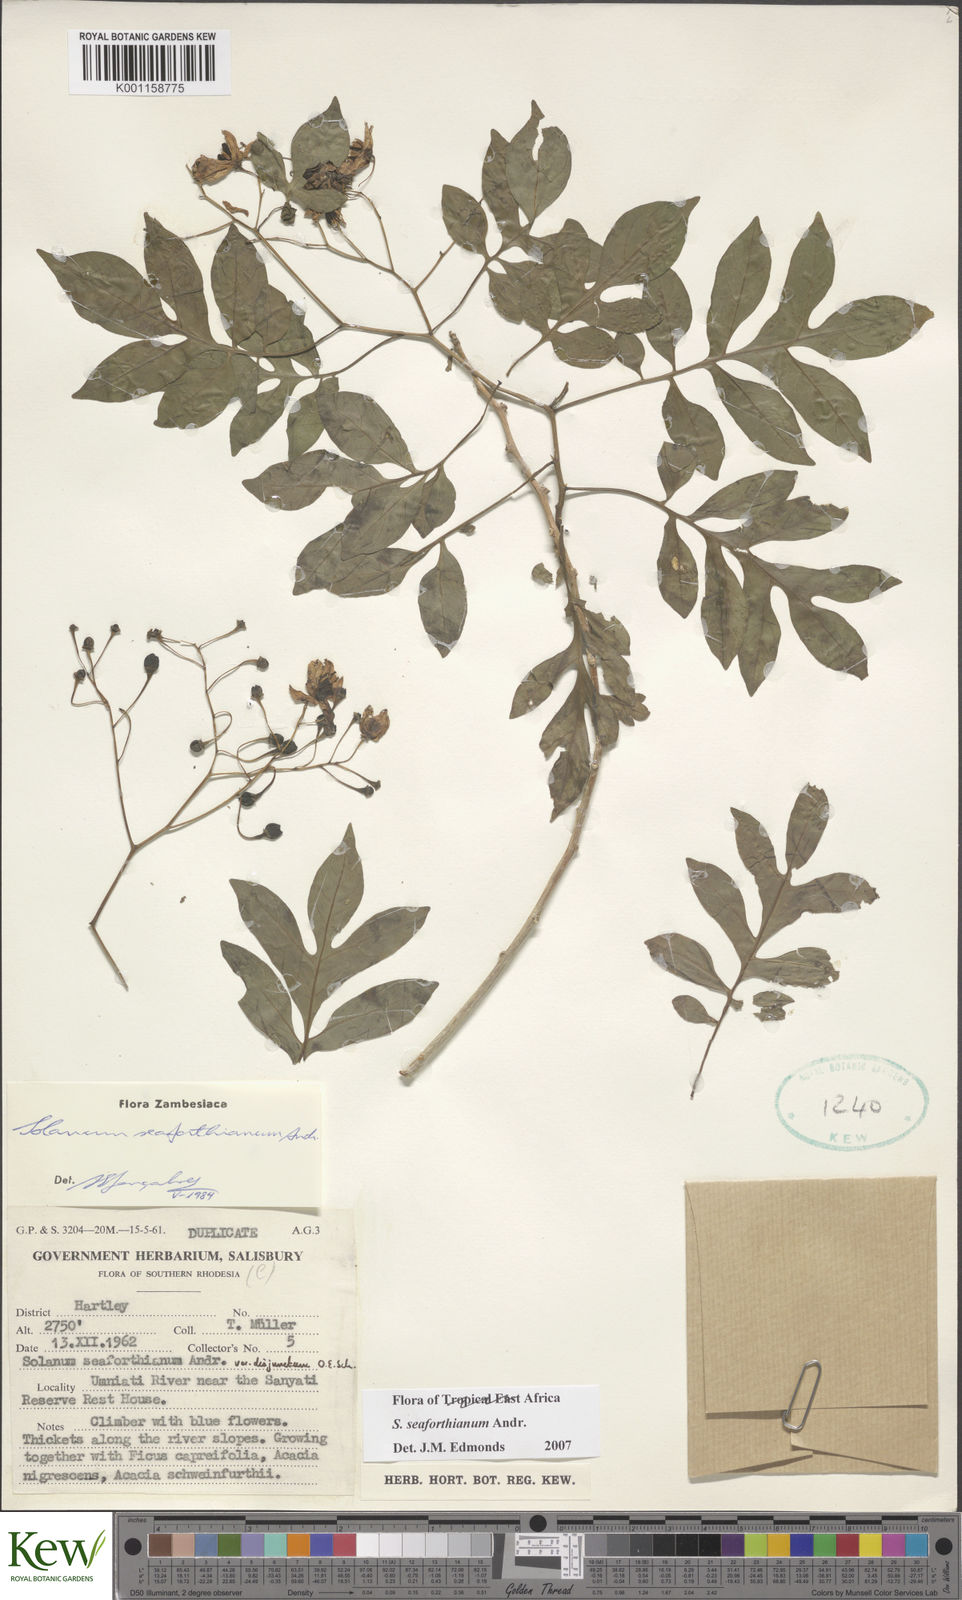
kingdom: Plantae
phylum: Tracheophyta
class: Magnoliopsida
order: Solanales
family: Solanaceae
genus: Solanum
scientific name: Solanum seaforthianum
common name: Brazilian nightshade
